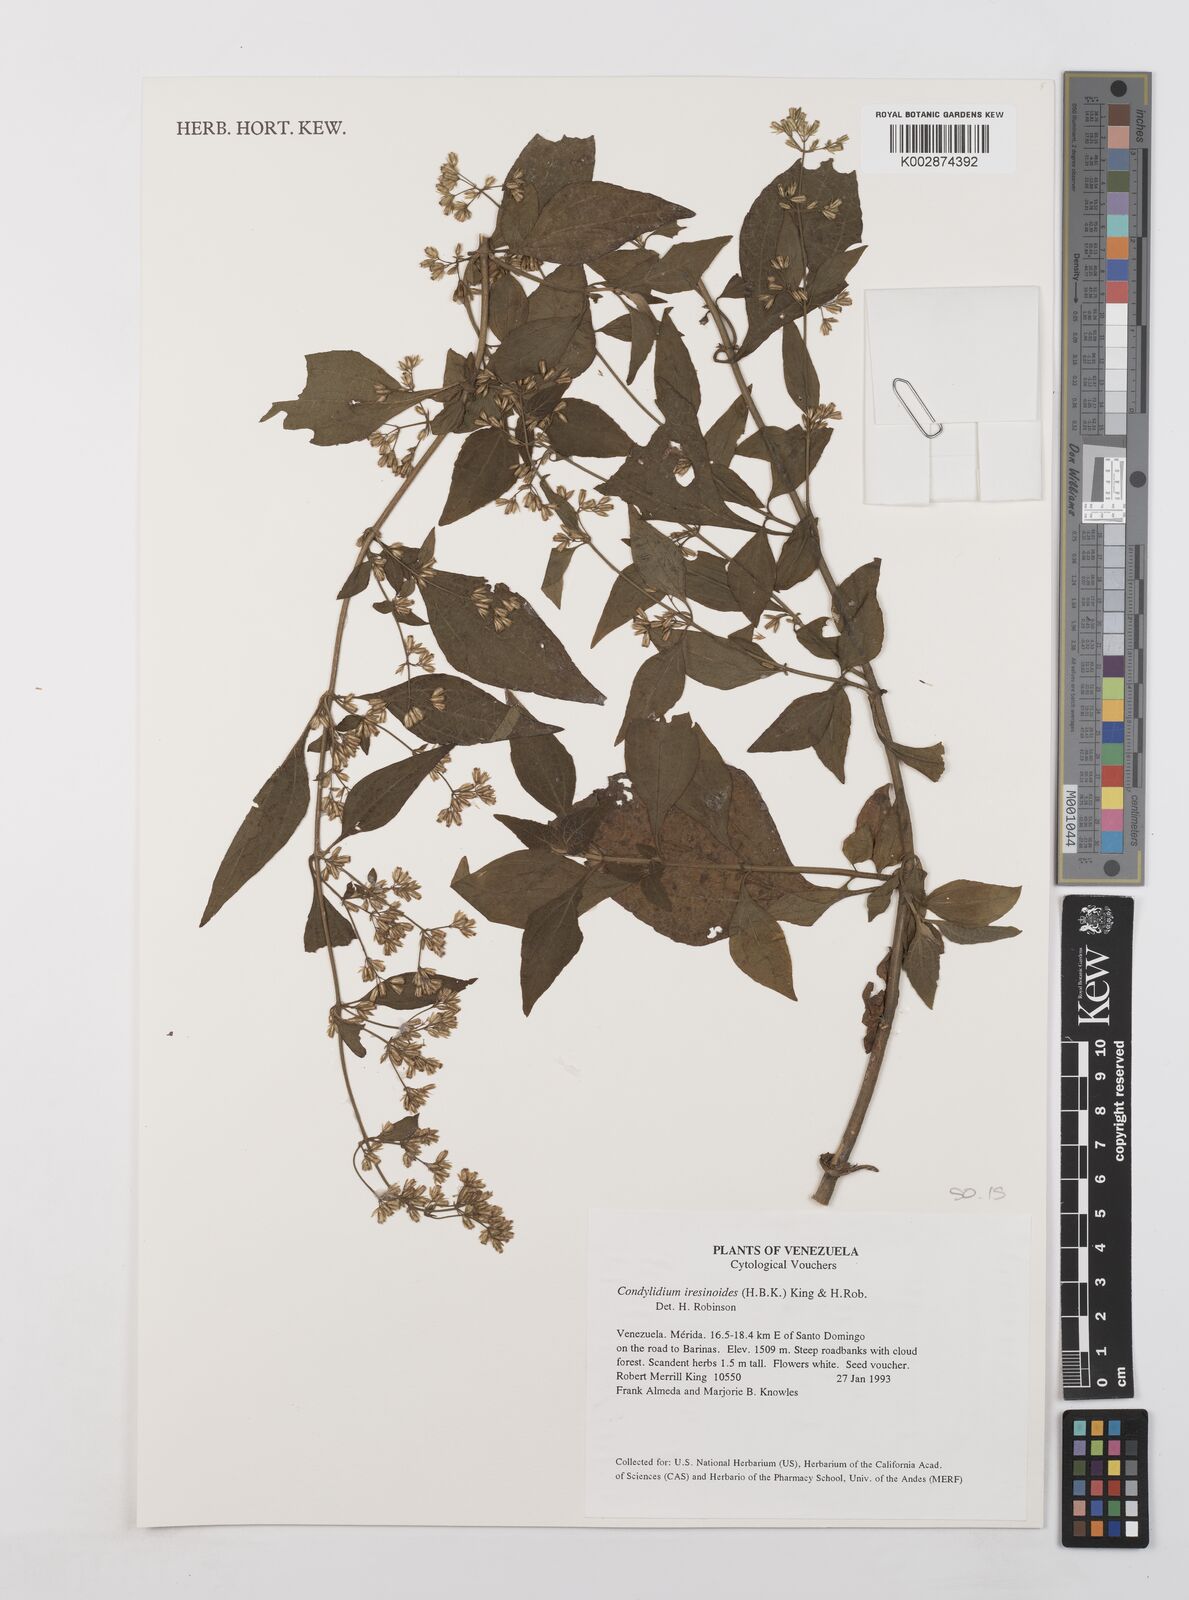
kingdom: Plantae
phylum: Tracheophyta
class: Magnoliopsida
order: Asterales
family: Asteraceae
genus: Condylidium
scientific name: Condylidium iresinoides
